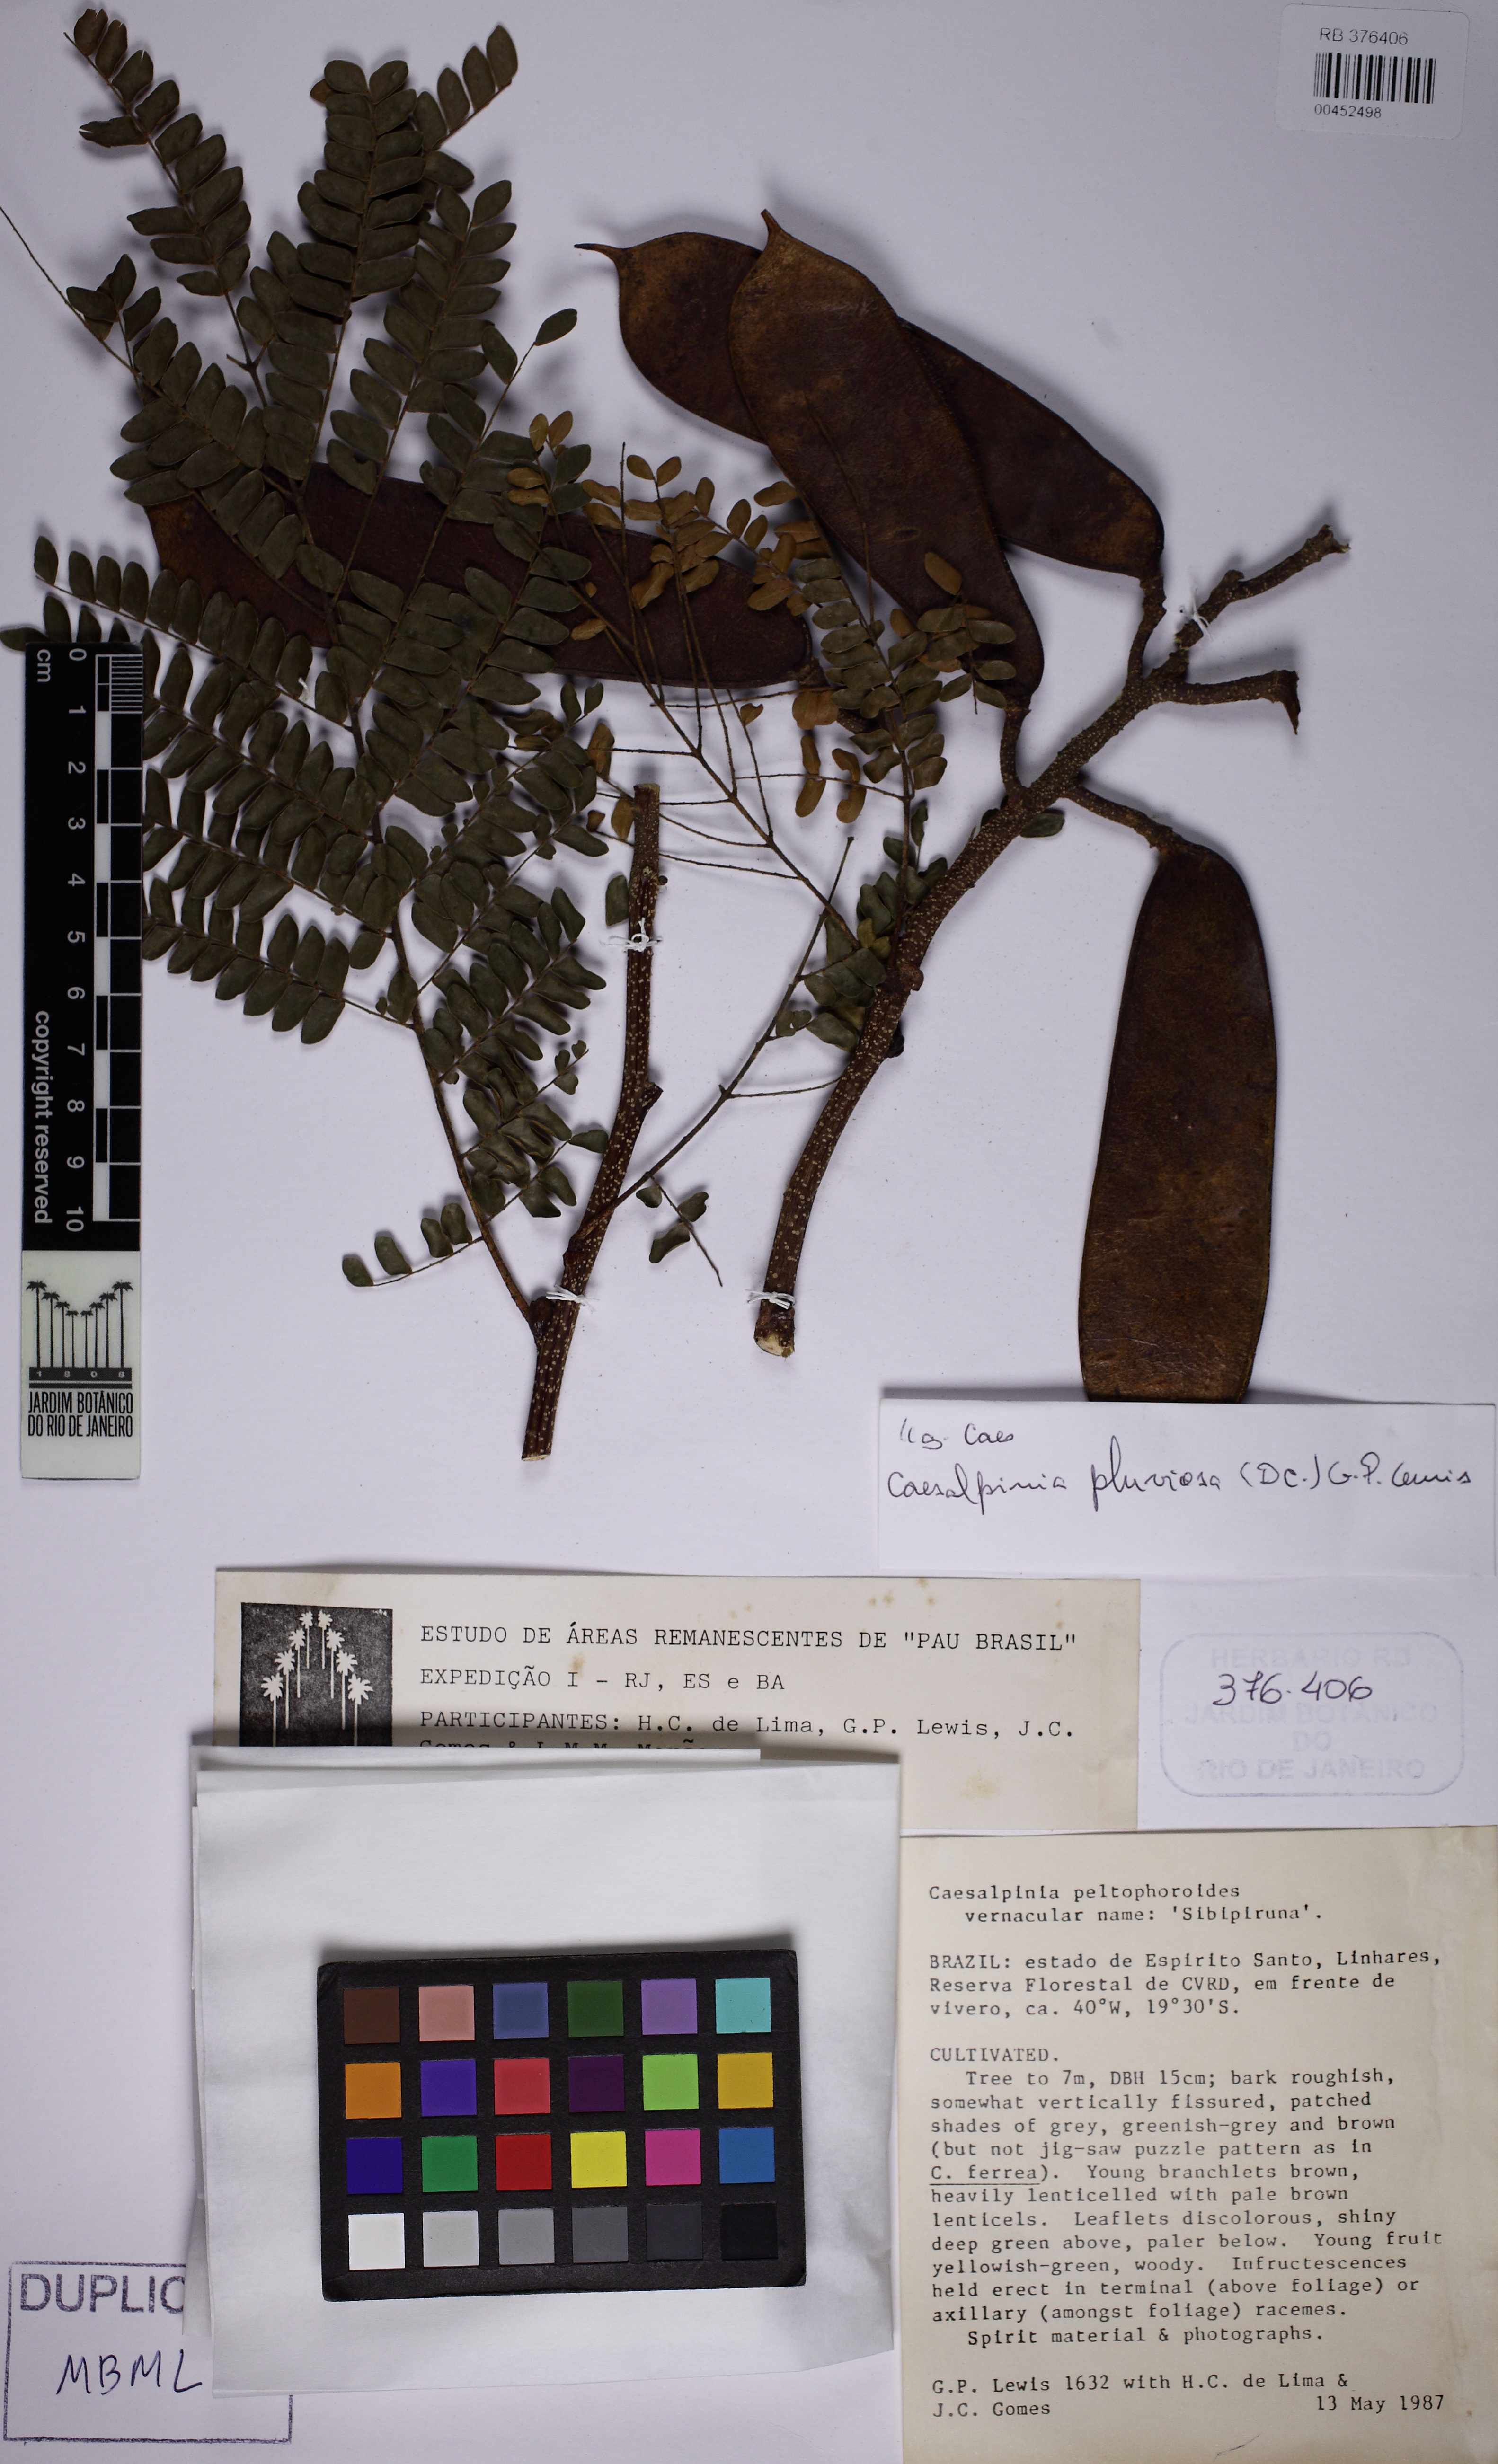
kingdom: Plantae
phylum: Tracheophyta
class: Magnoliopsida
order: Fabales
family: Fabaceae
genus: Cenostigma
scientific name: Cenostigma pluviosum
